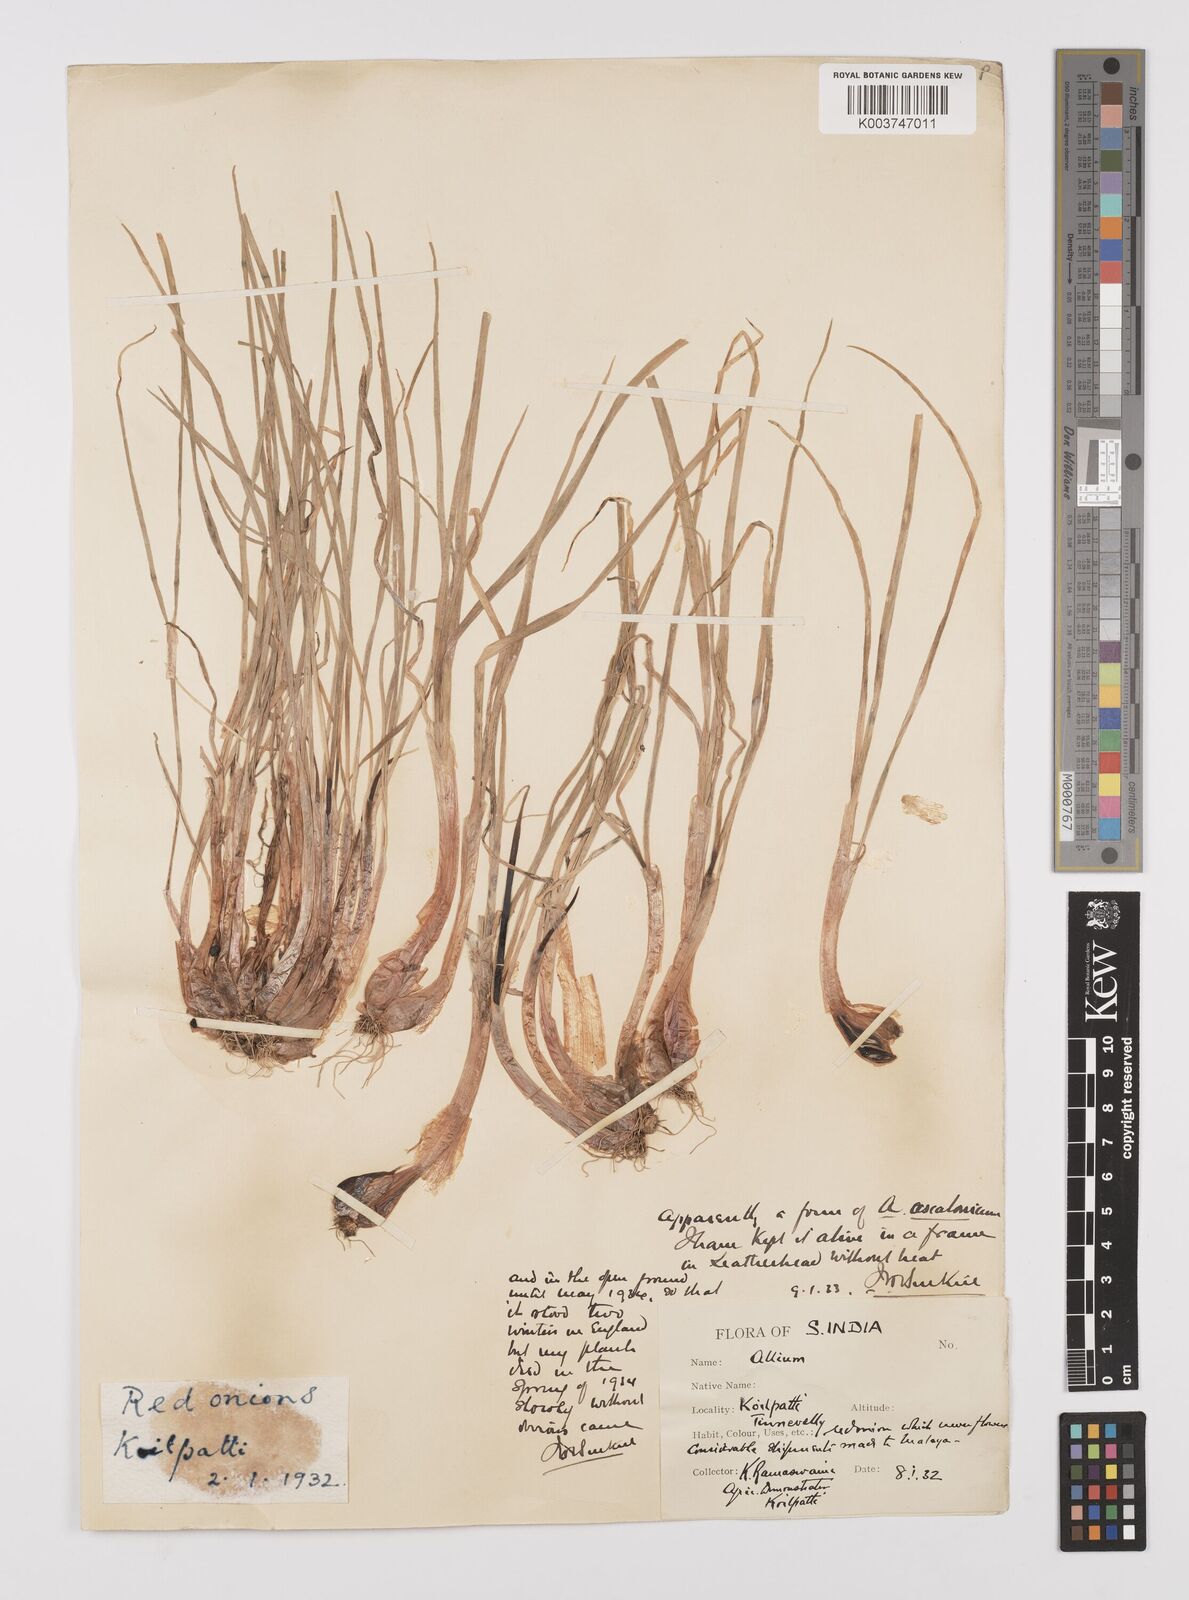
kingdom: Plantae
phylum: Tracheophyta
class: Liliopsida
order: Asparagales
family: Amaryllidaceae
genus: Allium
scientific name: Allium ascalonicum
